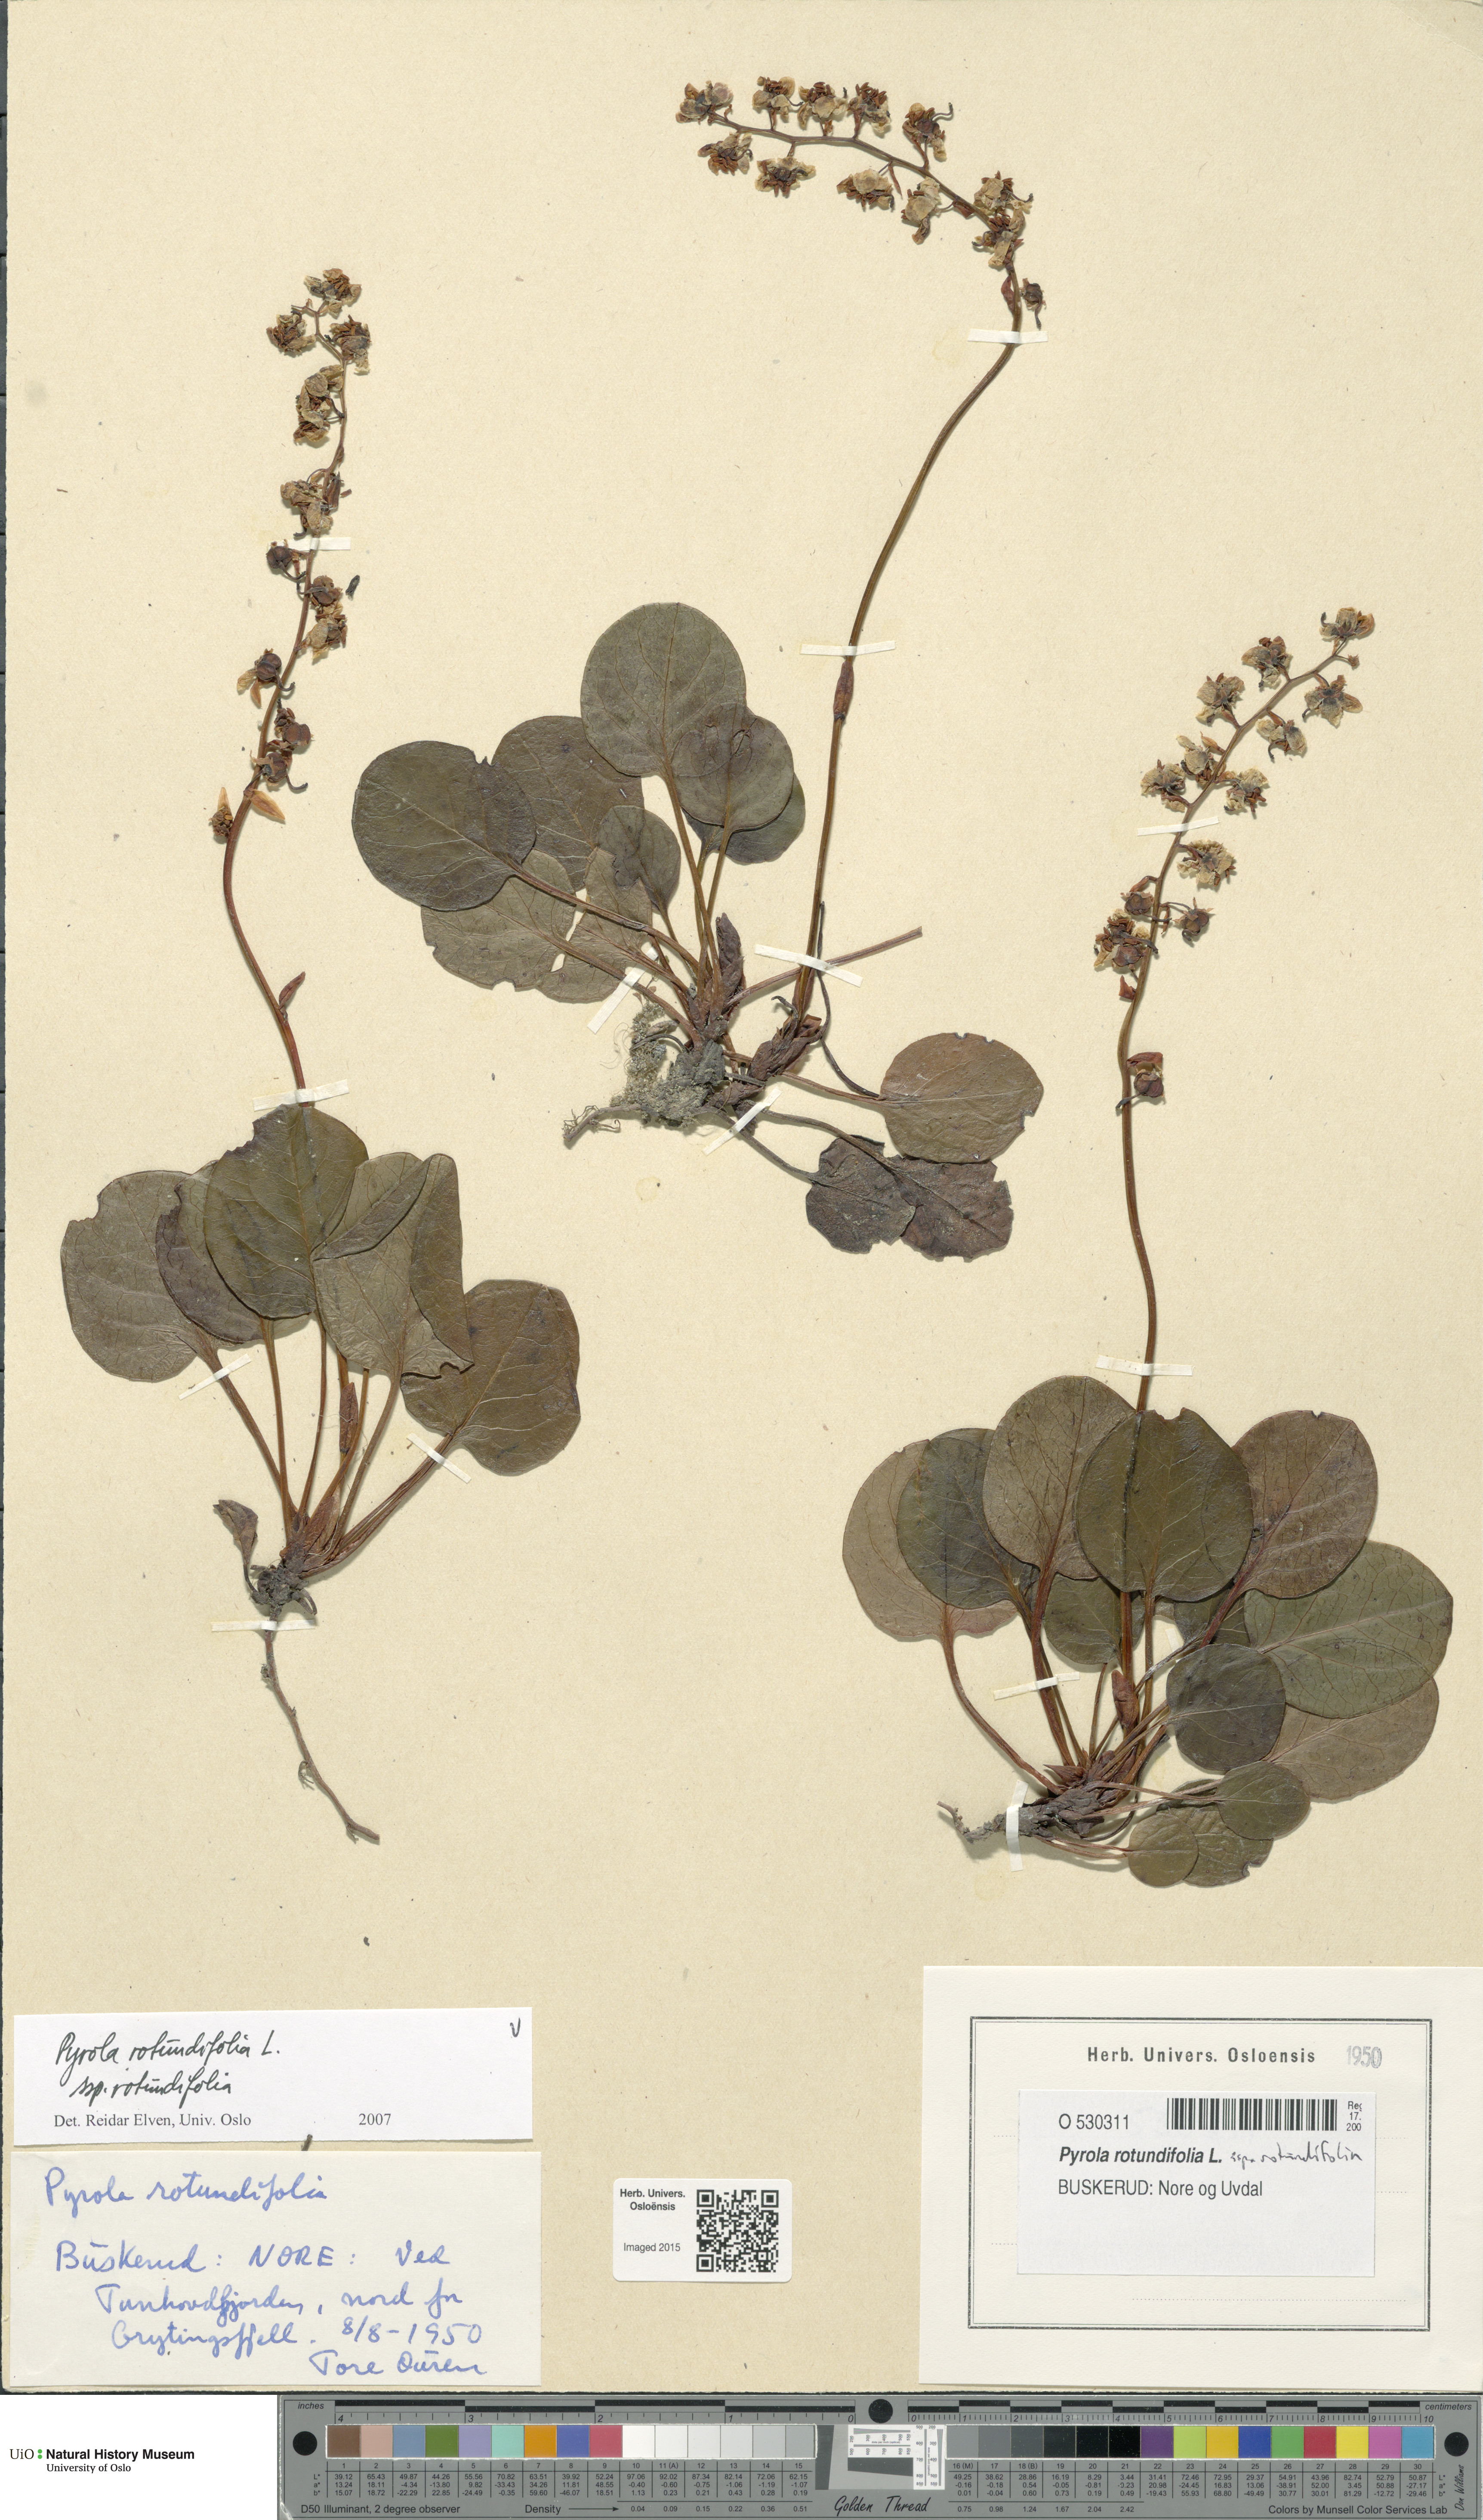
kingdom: Plantae
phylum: Tracheophyta
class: Magnoliopsida
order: Ericales
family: Ericaceae
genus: Pyrola
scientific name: Pyrola rotundifolia
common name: Round-leaved wintergreen
